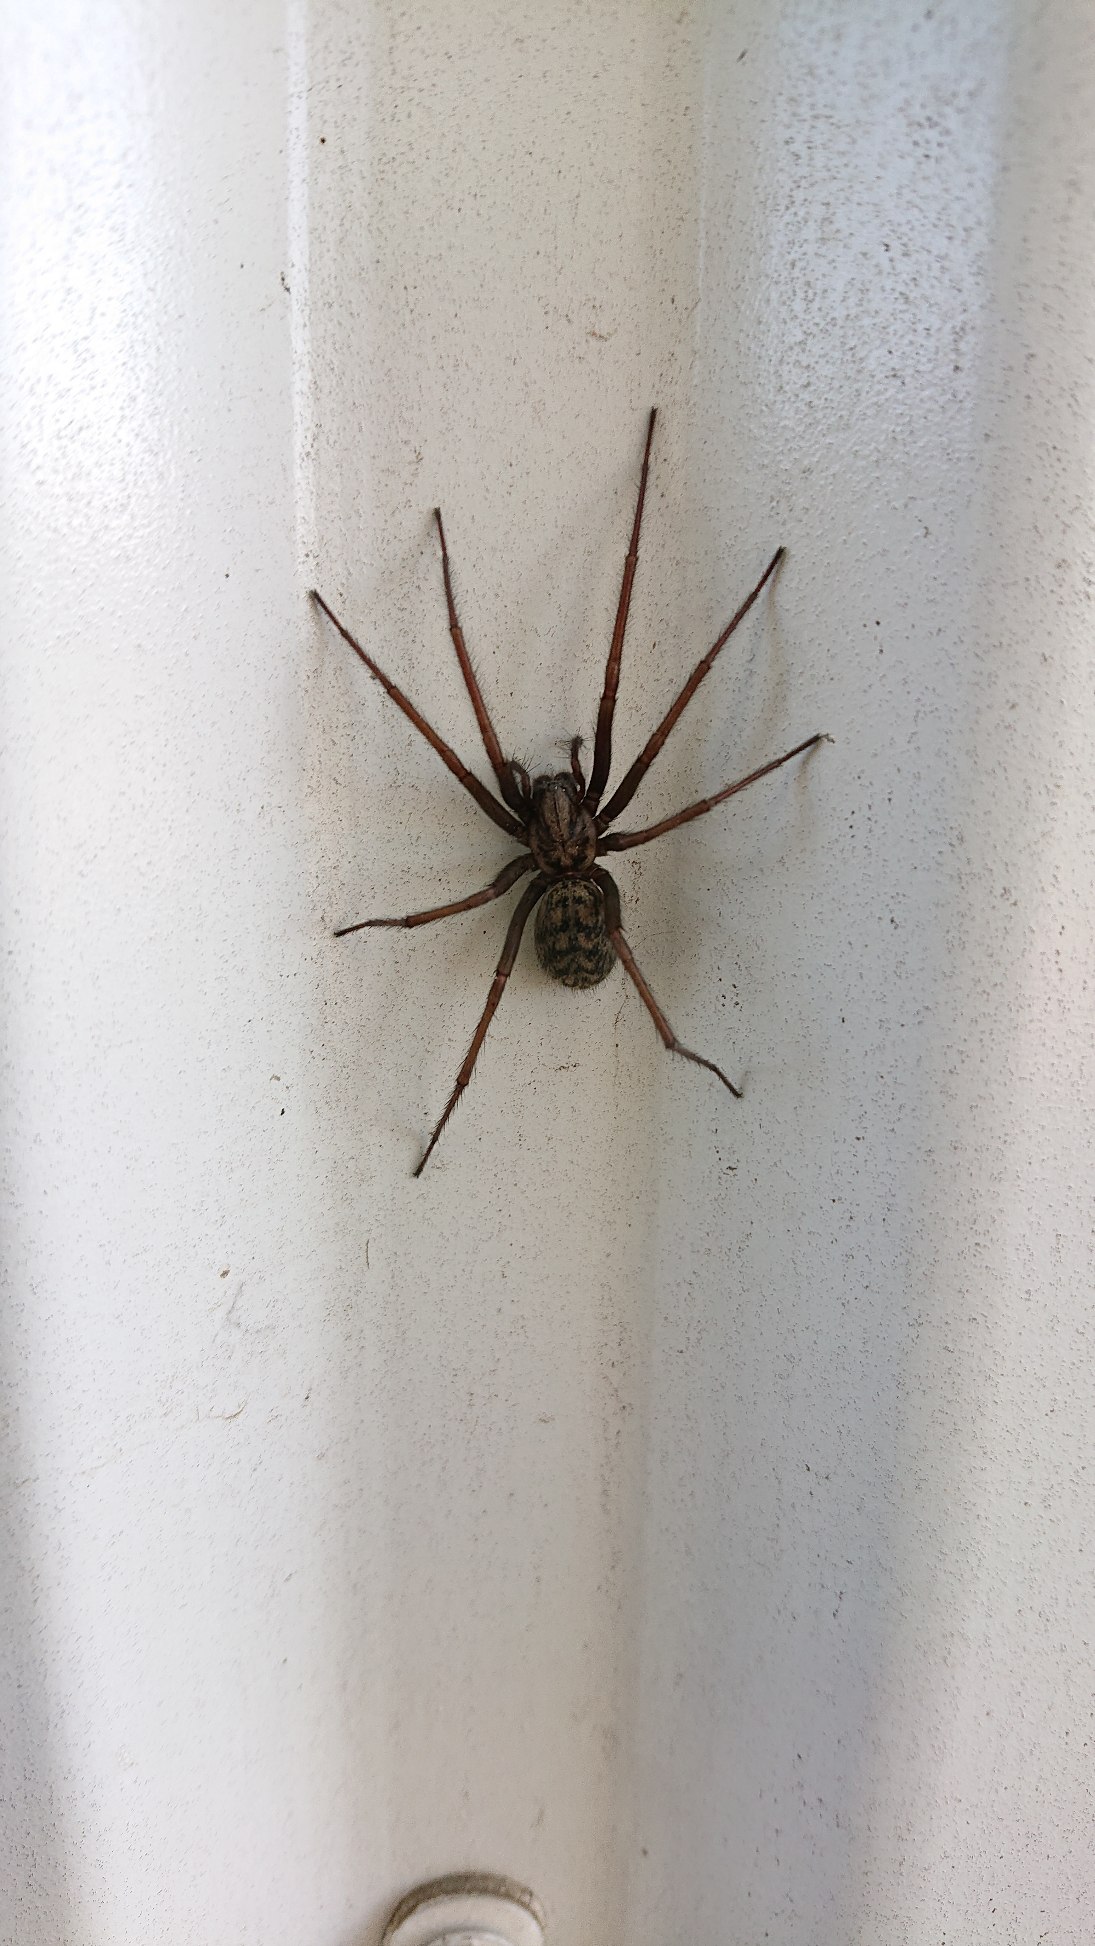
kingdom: Animalia
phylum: Arthropoda
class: Arachnida
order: Araneae
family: Agelenidae
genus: Eratigena
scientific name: Eratigena atrica
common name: Stor husedderkop
